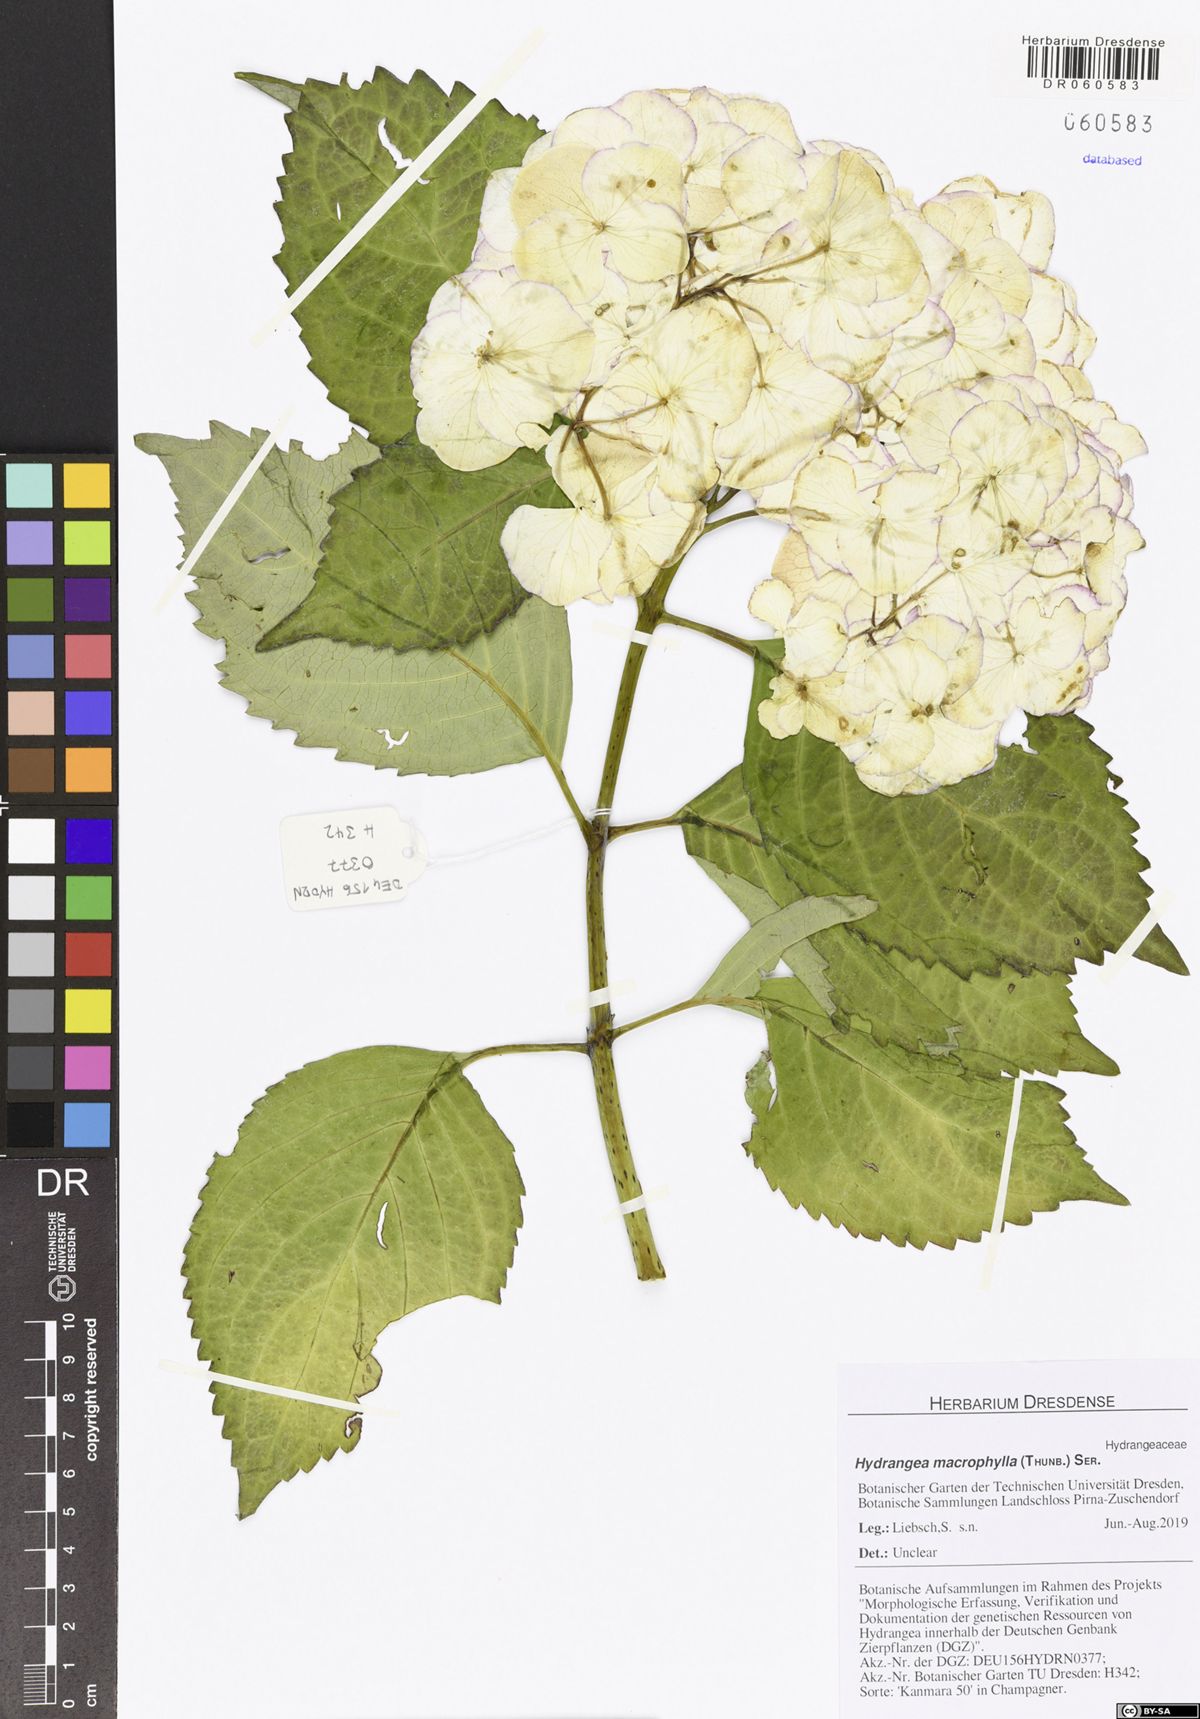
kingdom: Plantae
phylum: Tracheophyta
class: Magnoliopsida
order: Cornales
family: Hydrangeaceae
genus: Hydrangea
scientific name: Hydrangea macrophylla
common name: Hydrangea
